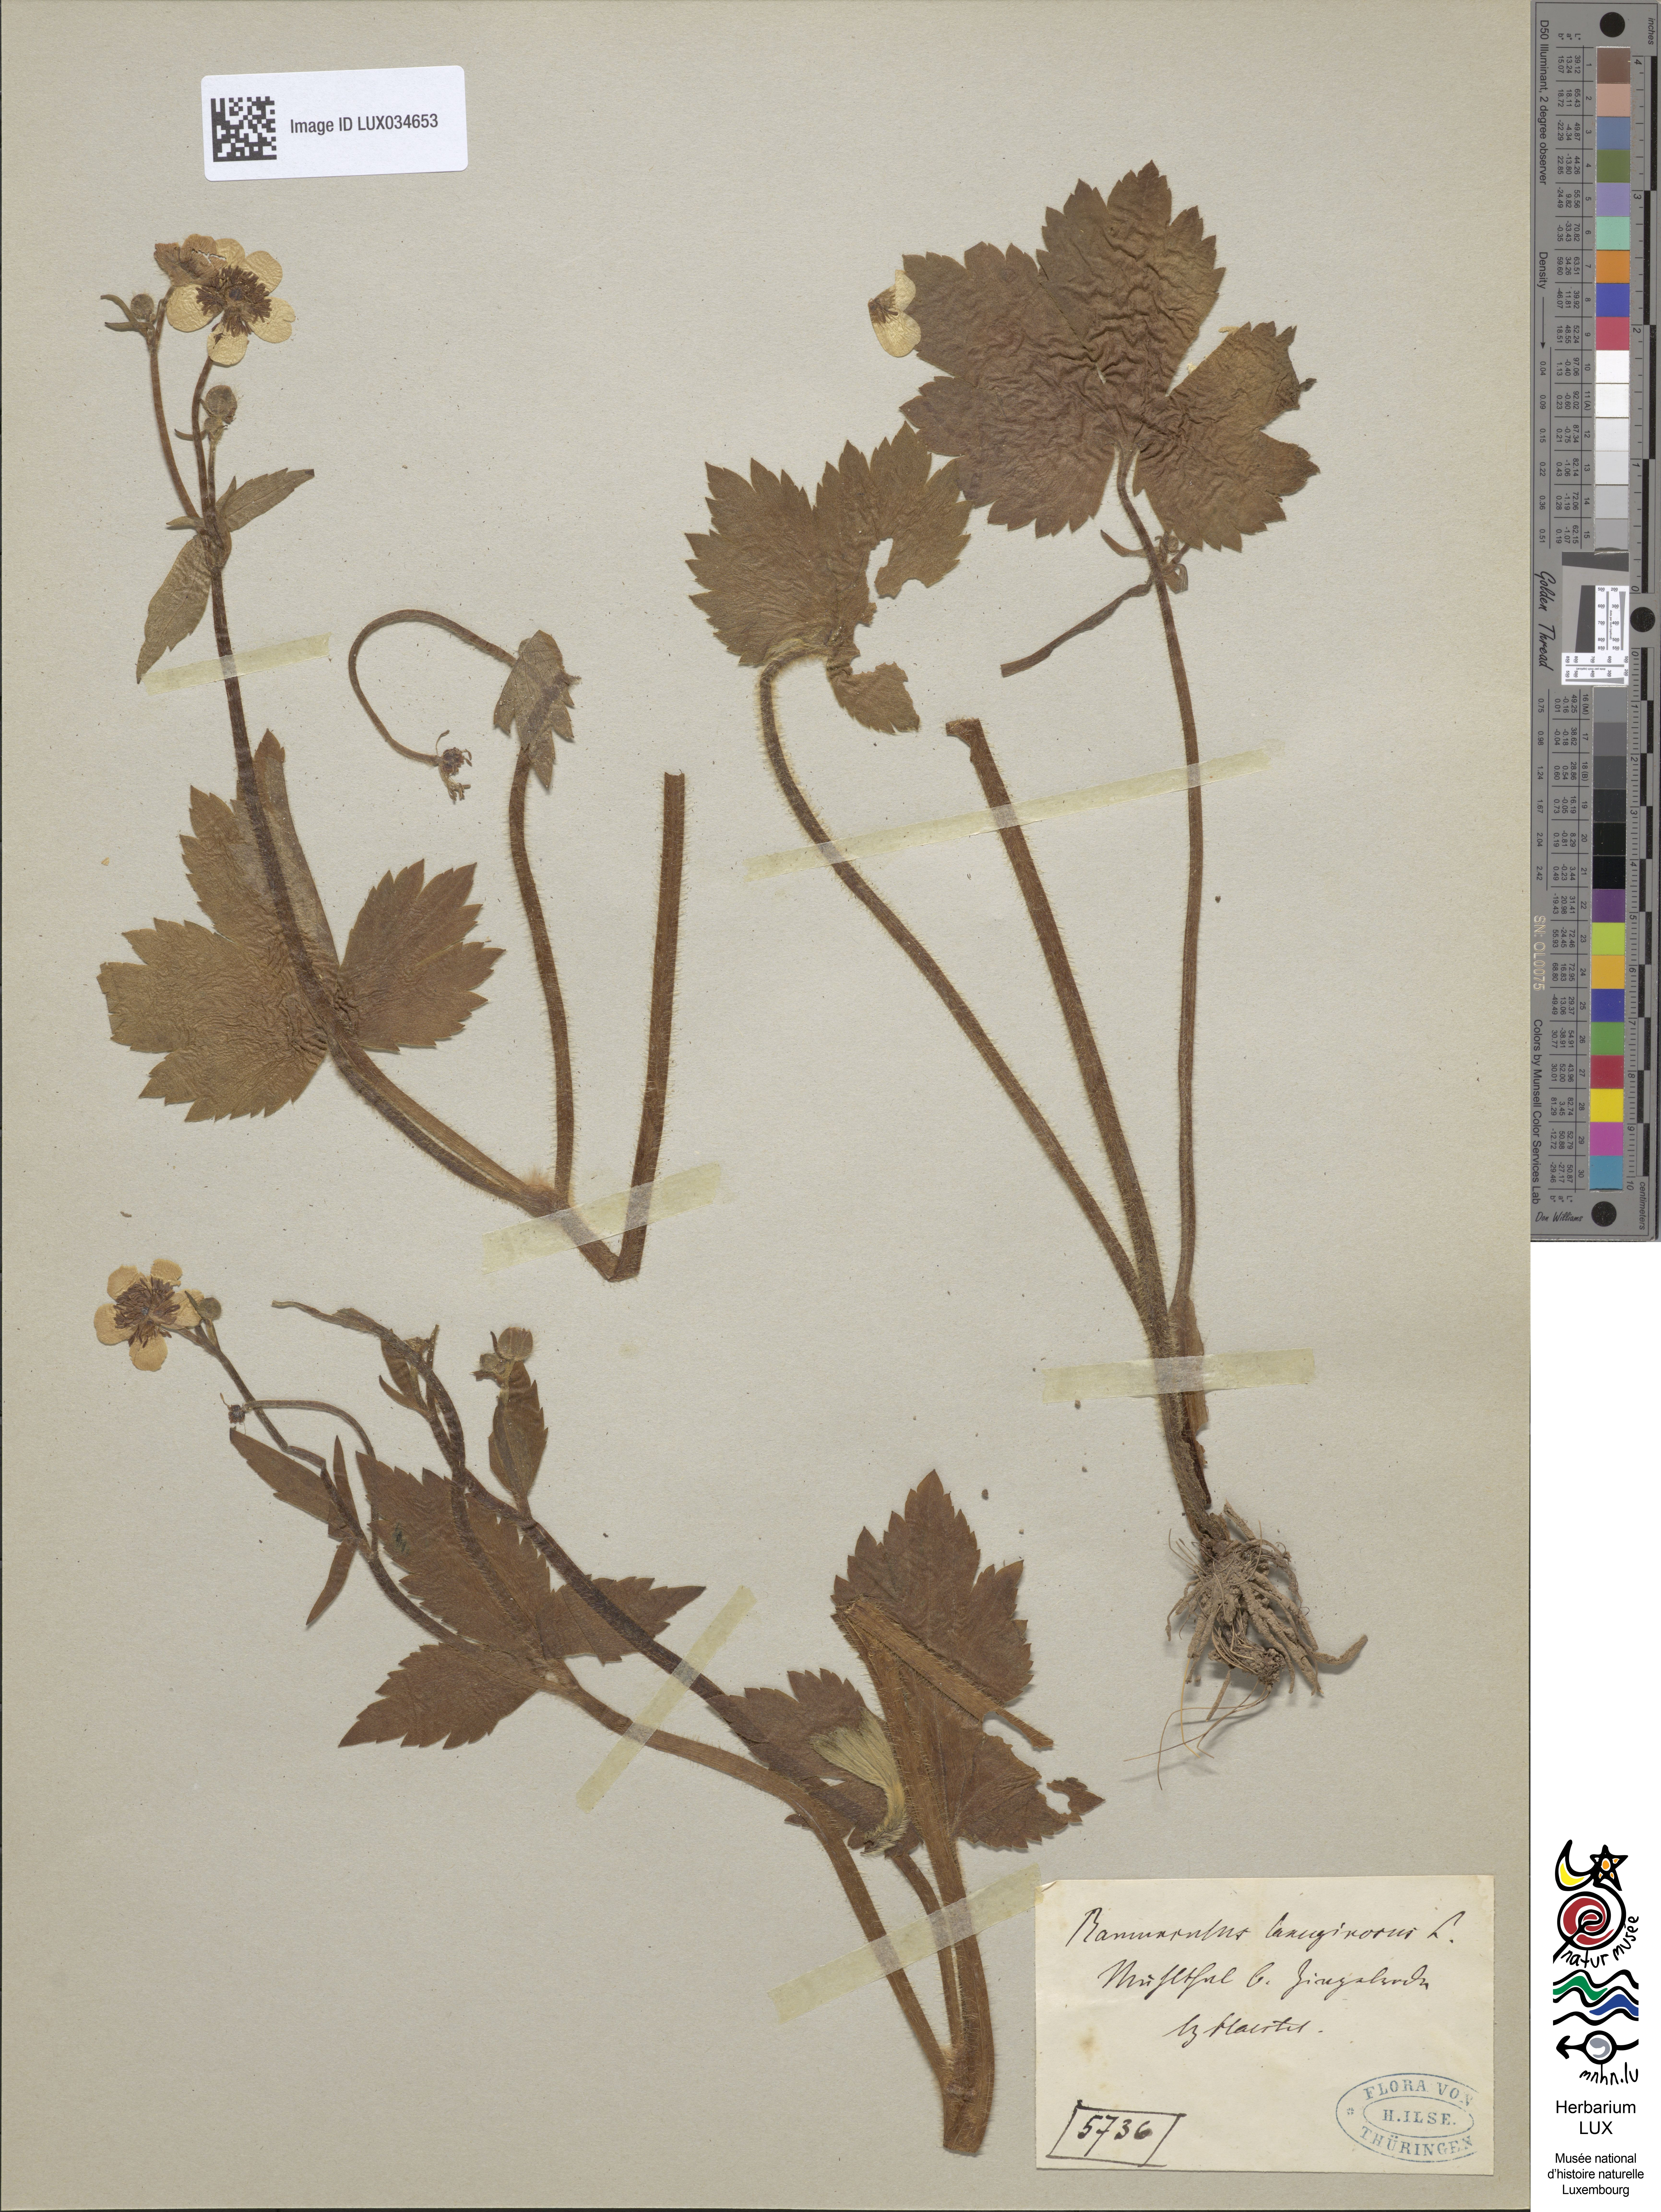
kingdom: Plantae
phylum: Tracheophyta
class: Magnoliopsida
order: Ranunculales
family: Ranunculaceae
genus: Ranunculus
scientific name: Ranunculus lanuginosus
